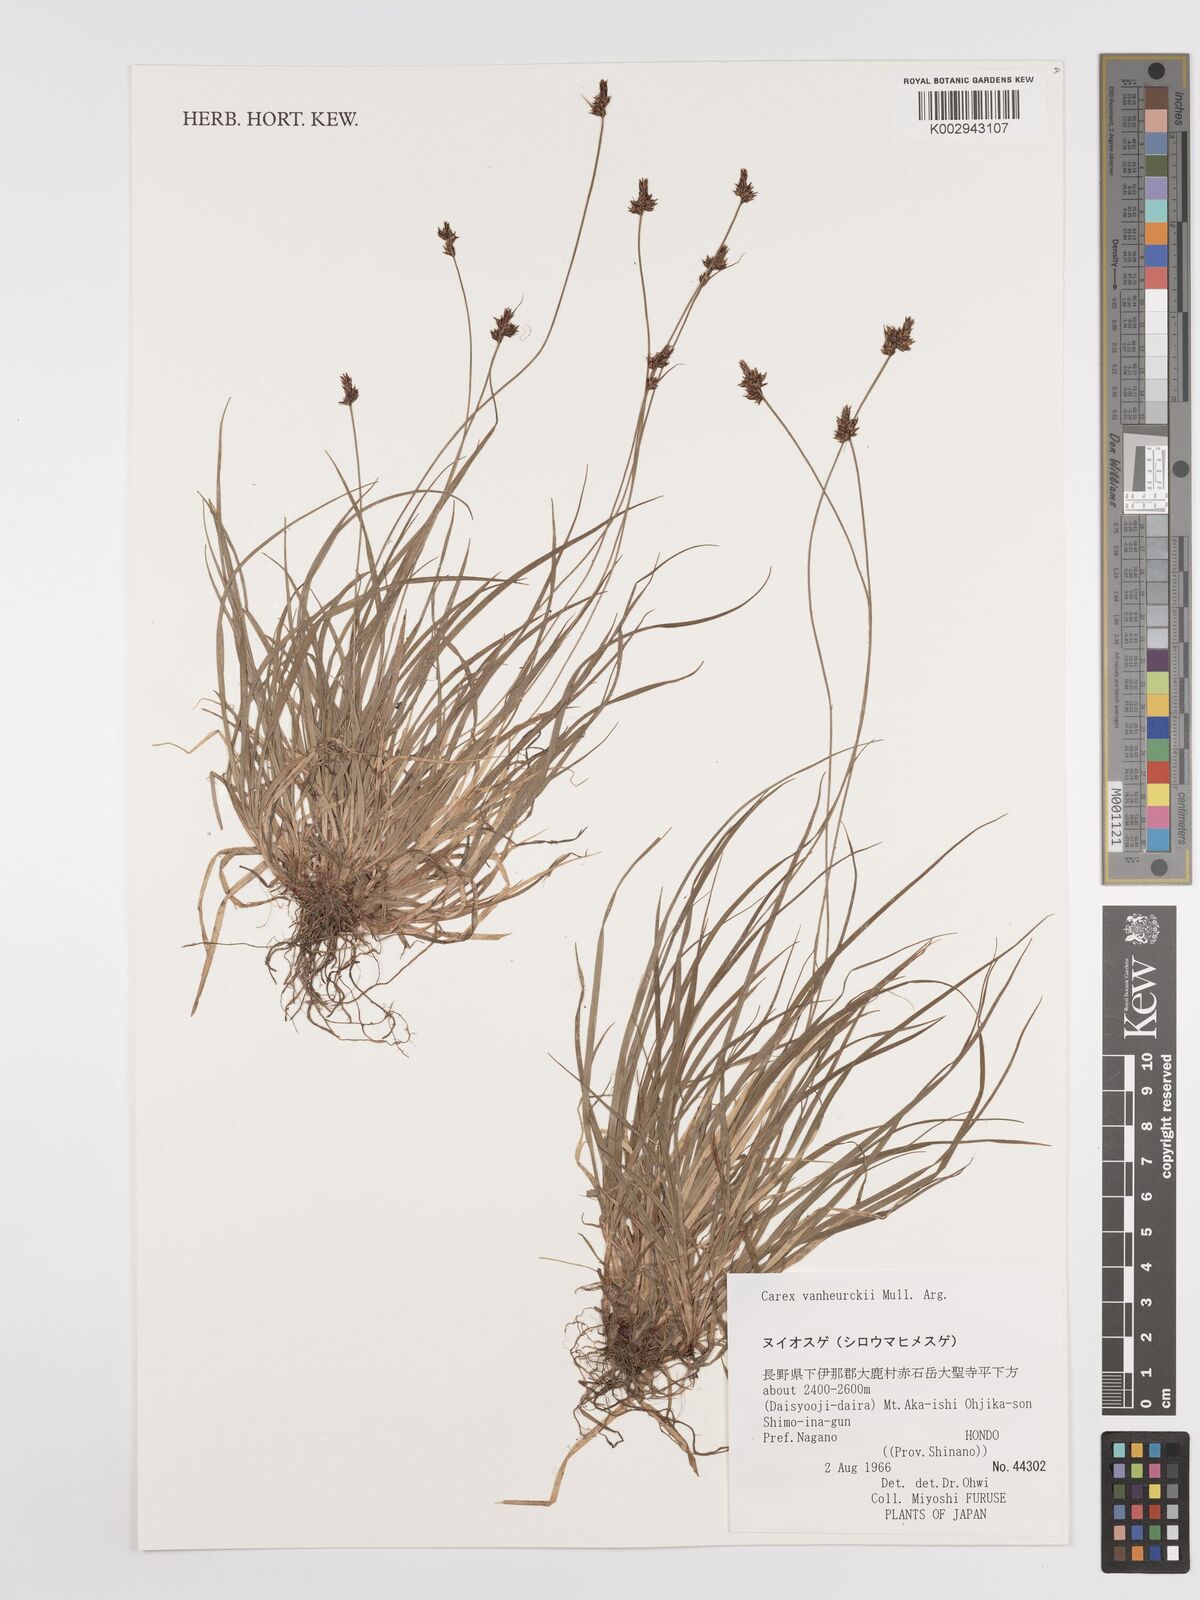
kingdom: Plantae
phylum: Tracheophyta
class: Liliopsida
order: Poales
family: Cyperaceae
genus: Carex
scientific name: Carex vanheurckii
